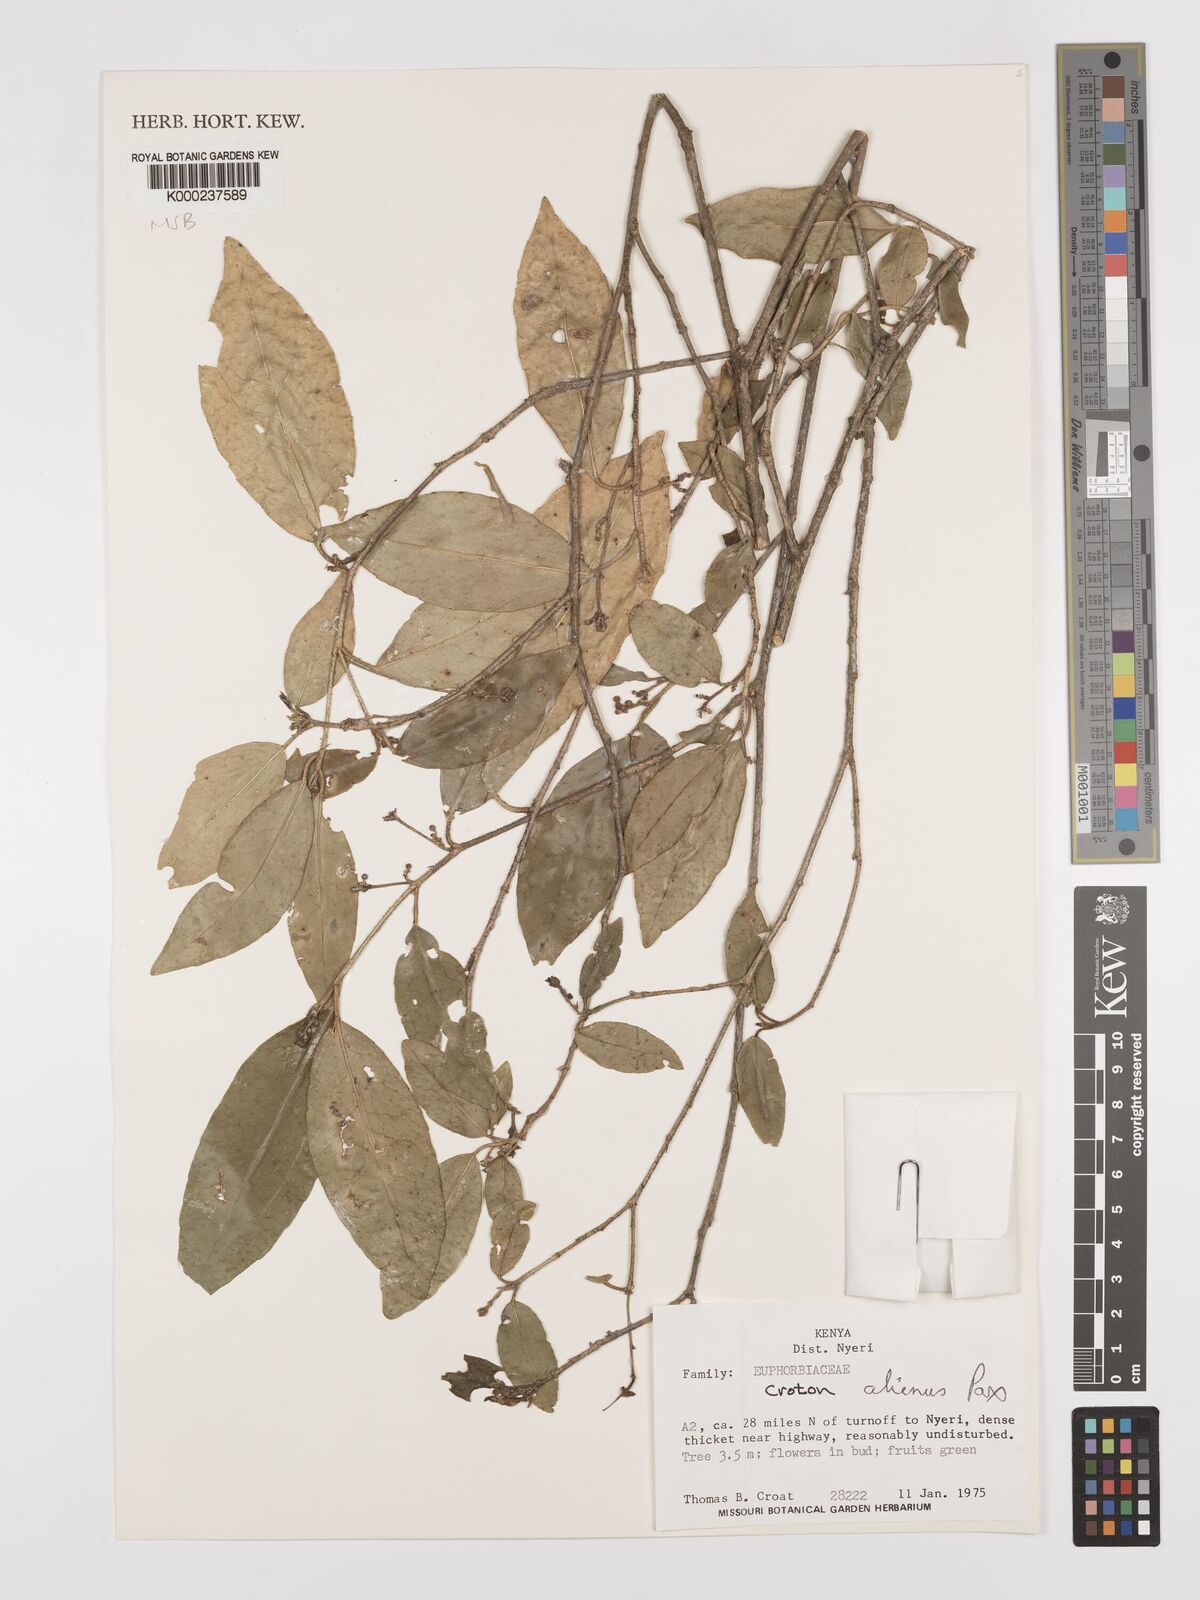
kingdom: Plantae
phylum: Tracheophyta
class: Magnoliopsida
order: Malpighiales
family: Euphorbiaceae
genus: Croton
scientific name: Croton alienus
